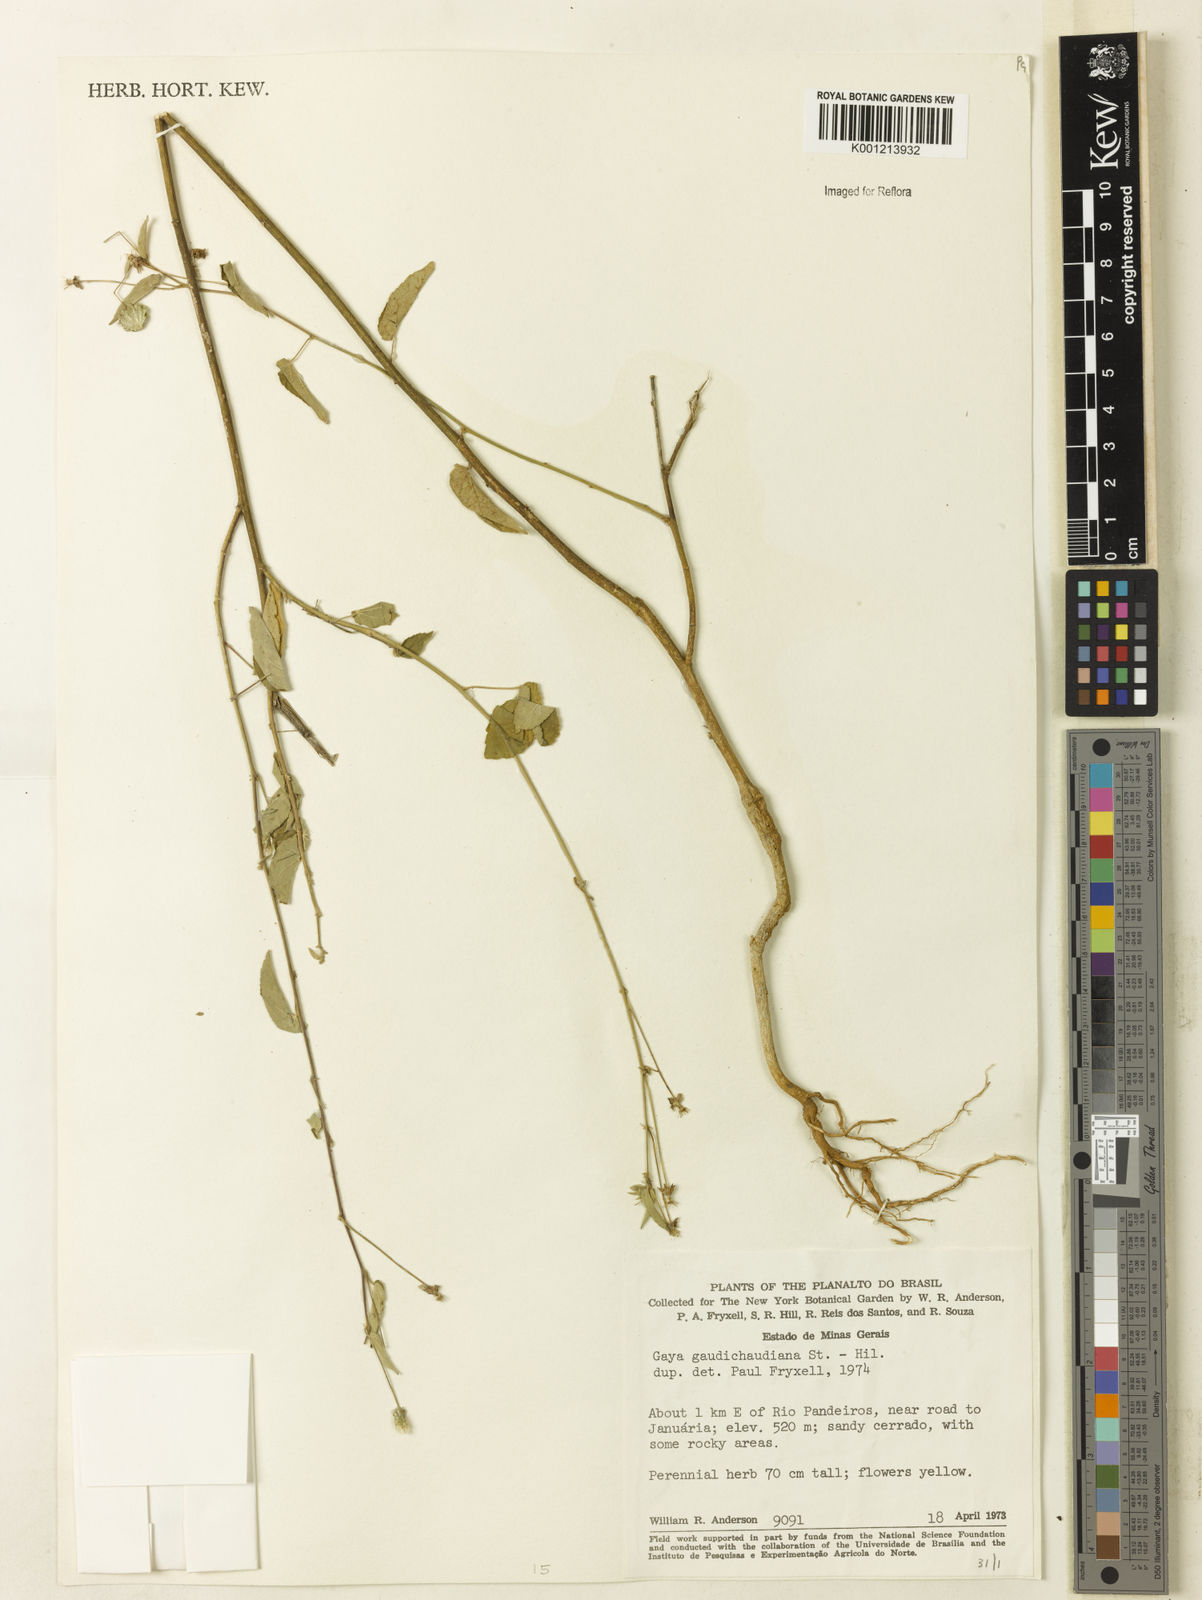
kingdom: Plantae
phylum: Tracheophyta
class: Magnoliopsida
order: Malvales
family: Malvaceae
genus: Gaya
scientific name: Gaya gaudichaudiana
